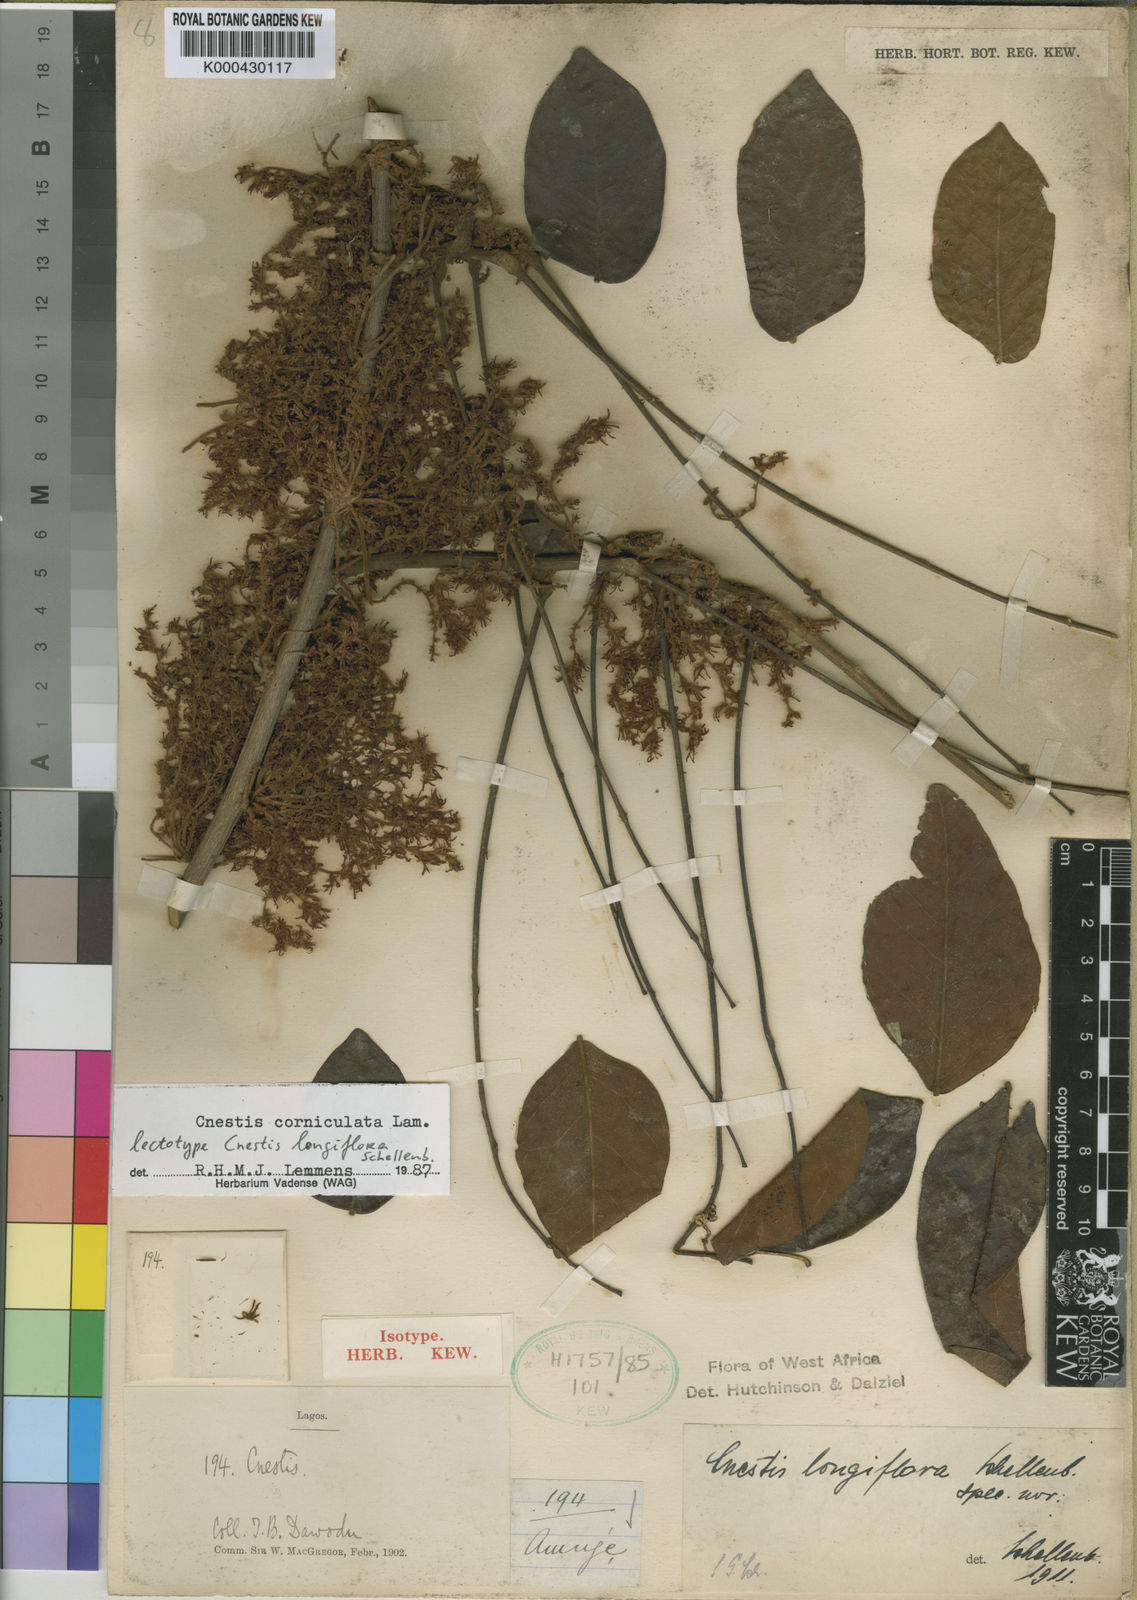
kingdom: Plantae
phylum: Tracheophyta
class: Magnoliopsida
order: Oxalidales
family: Connaraceae
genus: Cnestis
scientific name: Cnestis corniculata
